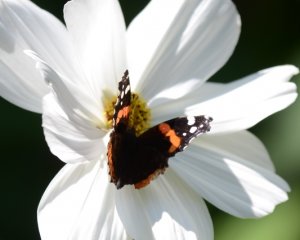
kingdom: Animalia
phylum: Arthropoda
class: Insecta
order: Lepidoptera
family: Nymphalidae
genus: Vanessa
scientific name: Vanessa atalanta
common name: Red Admiral
